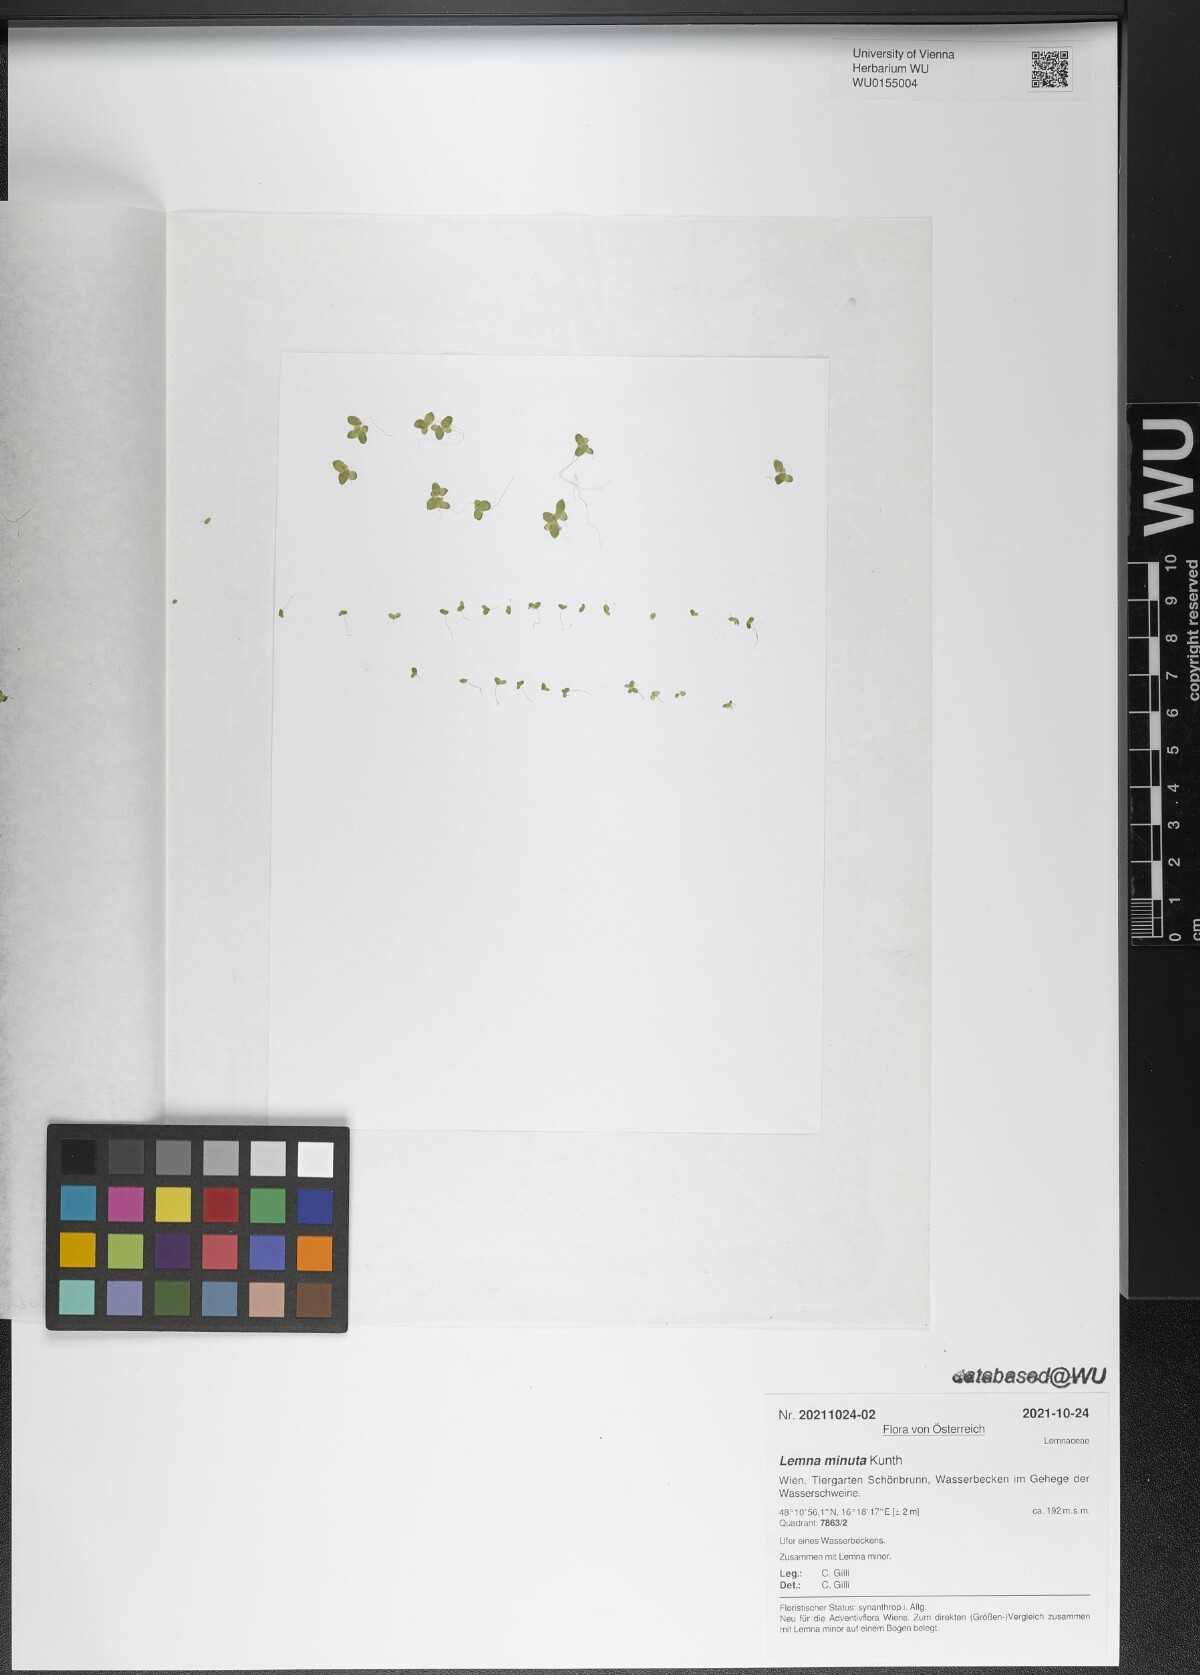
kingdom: Plantae
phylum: Tracheophyta
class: Liliopsida
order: Alismatales
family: Araceae
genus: Lemna
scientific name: Lemna minuta
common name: Least duckweed
